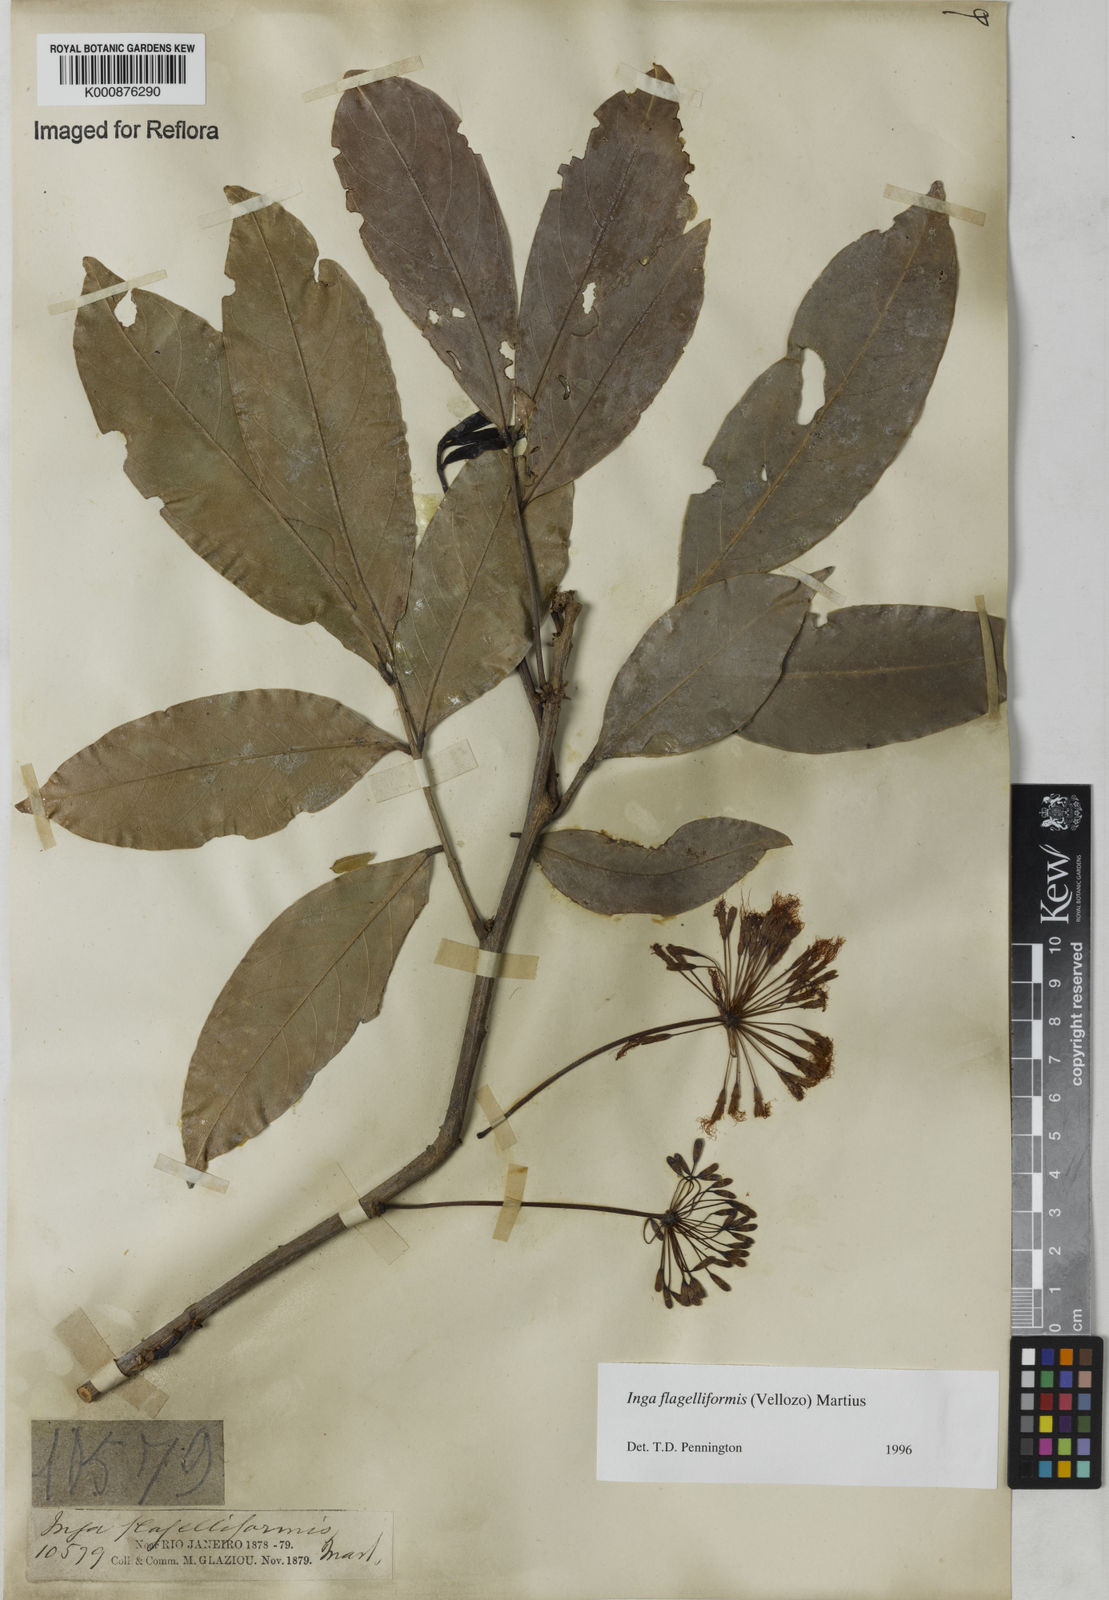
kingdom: Plantae
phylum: Tracheophyta
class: Magnoliopsida
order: Fabales
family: Fabaceae
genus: Inga
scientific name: Inga flagelliformis
